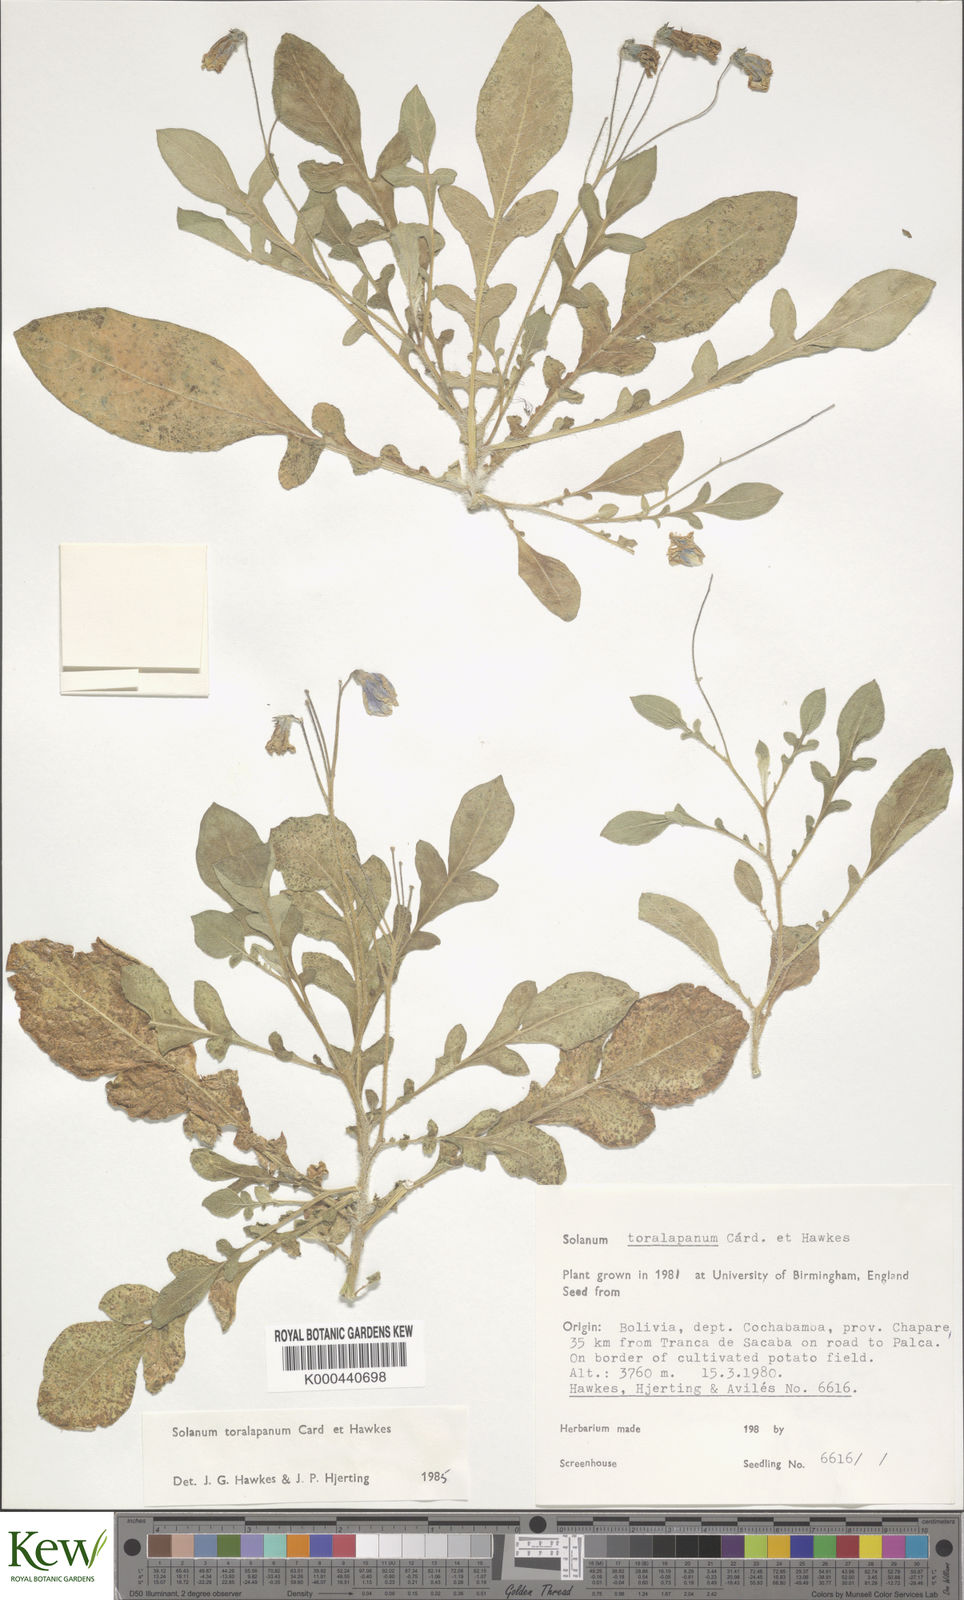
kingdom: Plantae
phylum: Tracheophyta
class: Magnoliopsida
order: Solanales
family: Solanaceae
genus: Solanum
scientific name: Solanum boliviense
